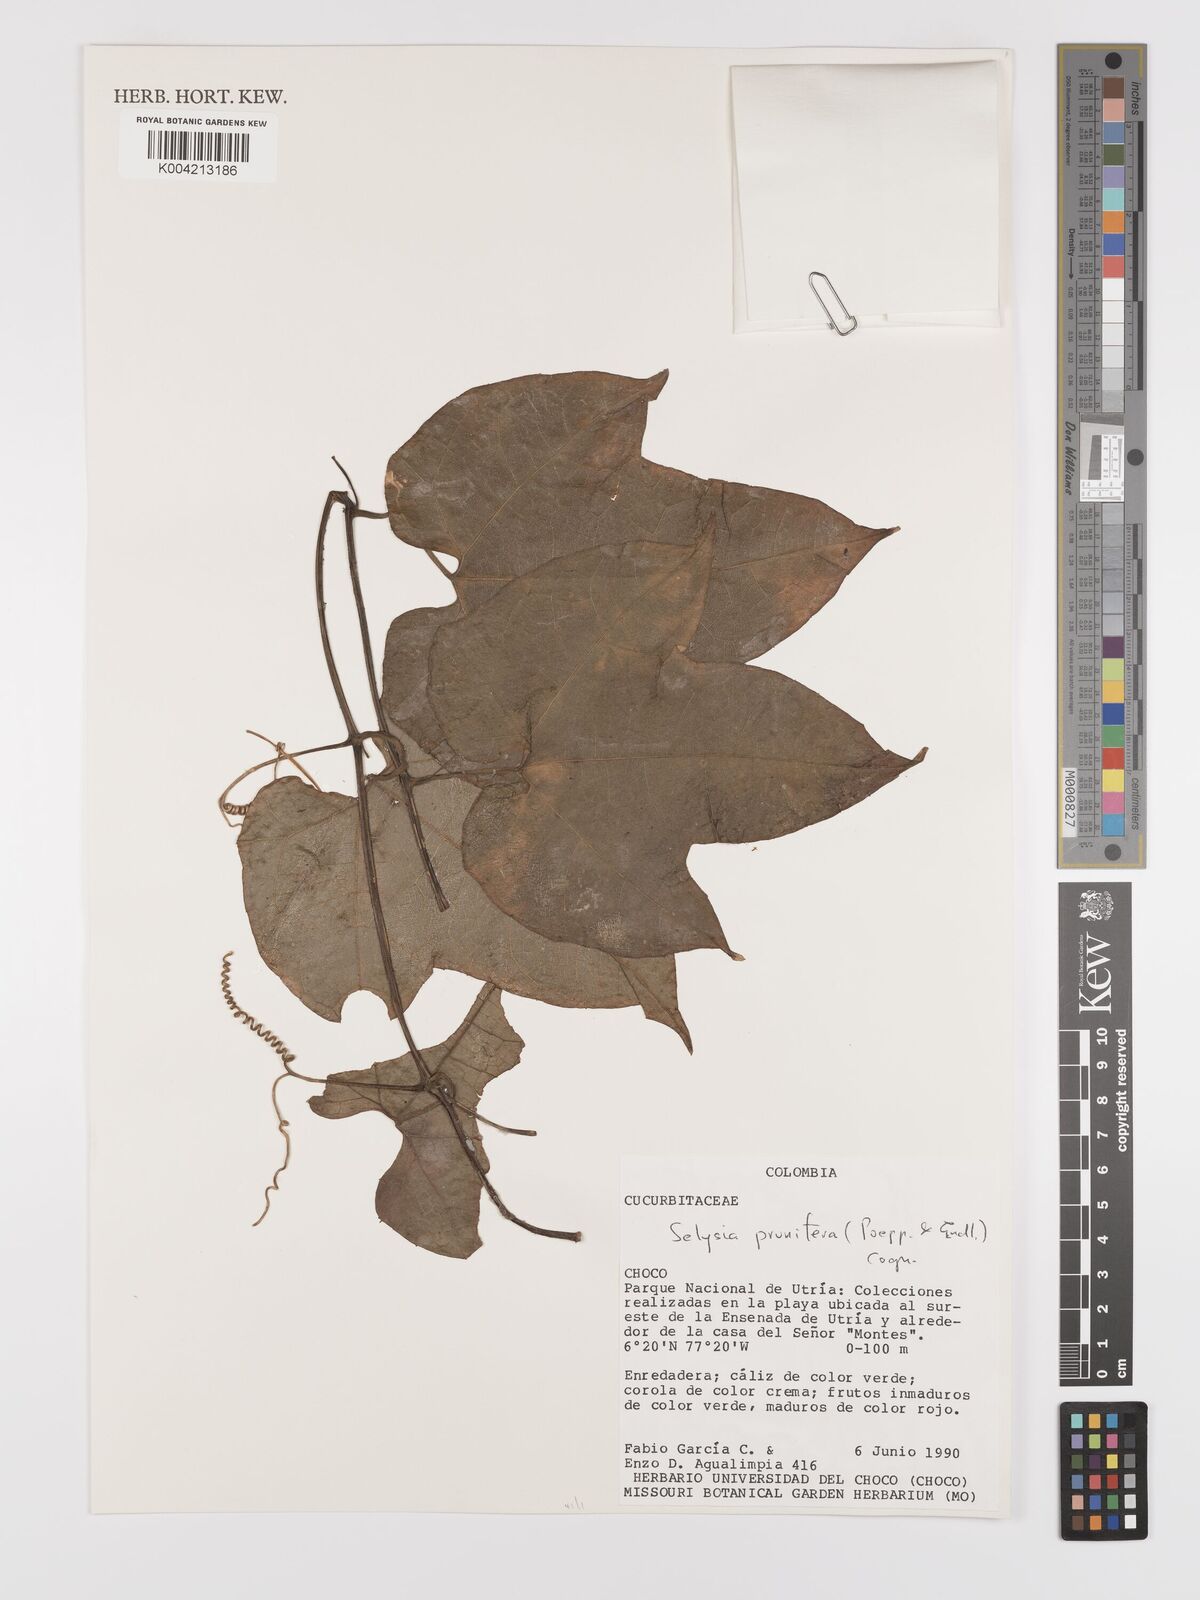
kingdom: Plantae
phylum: Tracheophyta
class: Magnoliopsida
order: Cucurbitales
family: Cucurbitaceae
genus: Cayaponia
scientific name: Cayaponia prunifera
